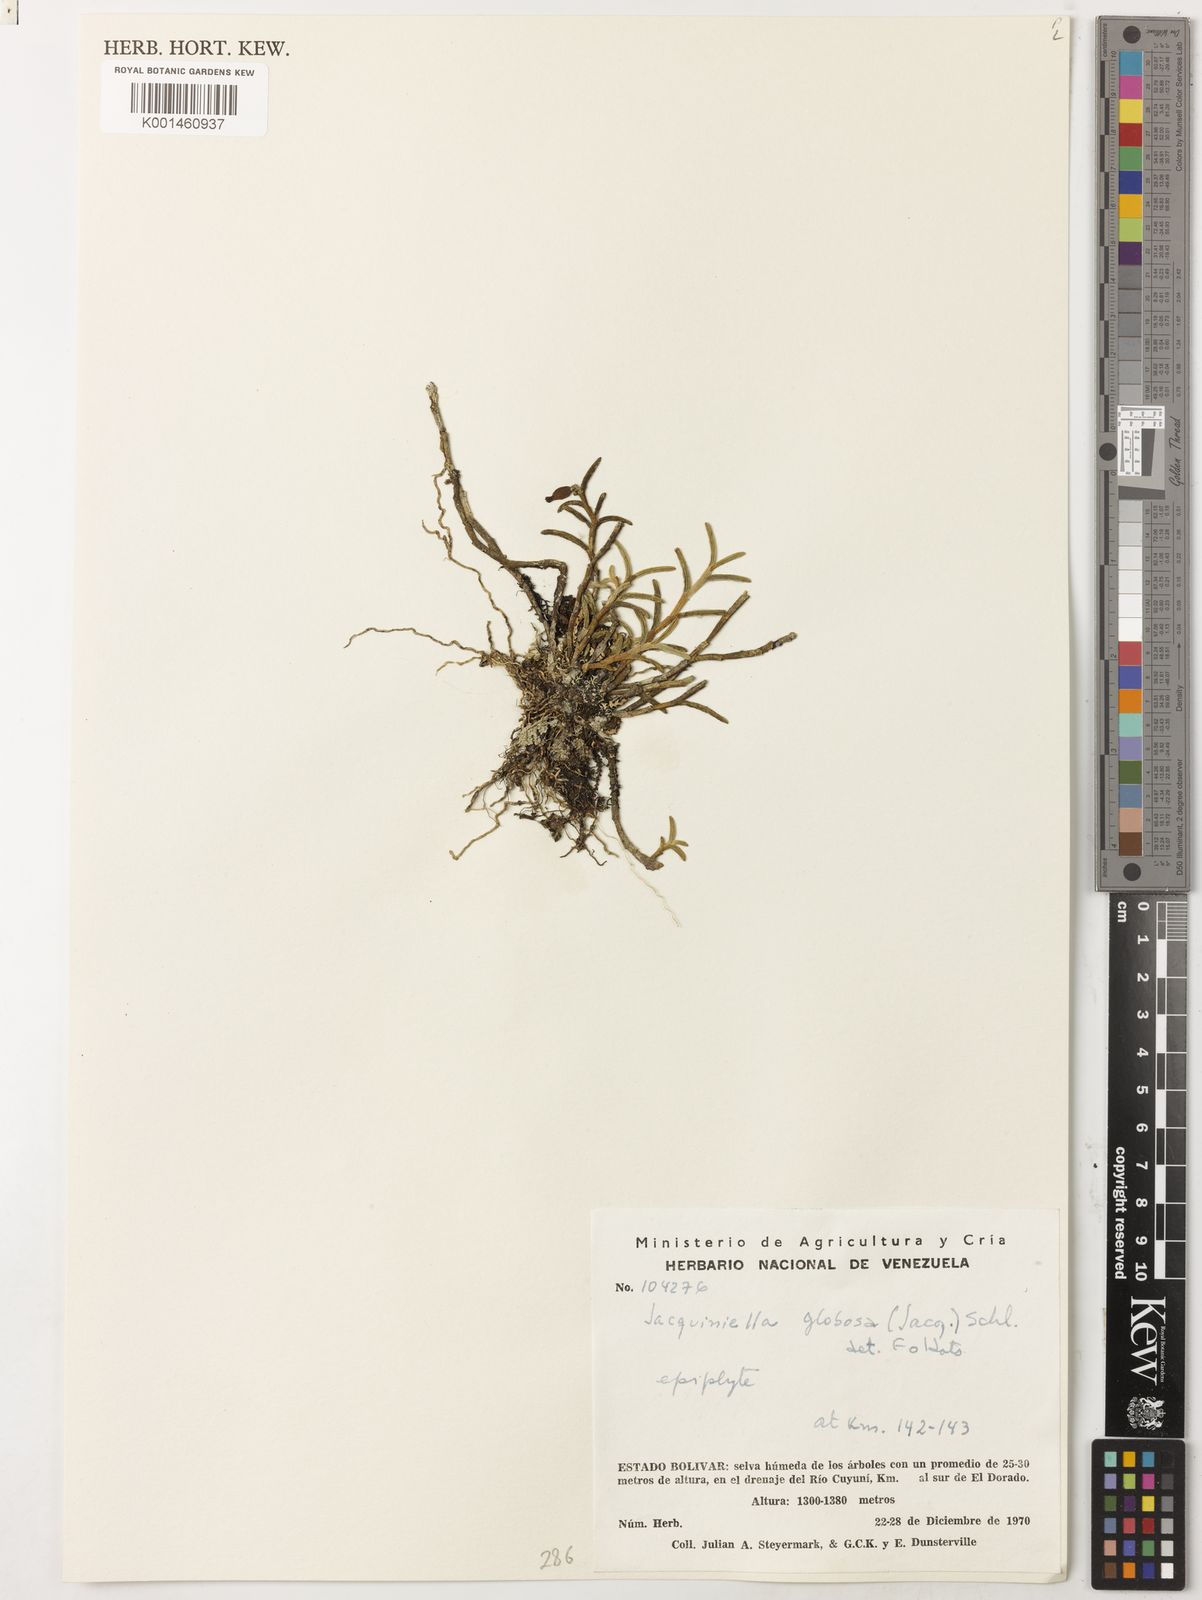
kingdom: Plantae
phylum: Tracheophyta
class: Liliopsida
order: Asparagales
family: Orchidaceae
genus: Jacquiniella
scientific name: Jacquiniella globosa
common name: Redblotch tufted orchid
